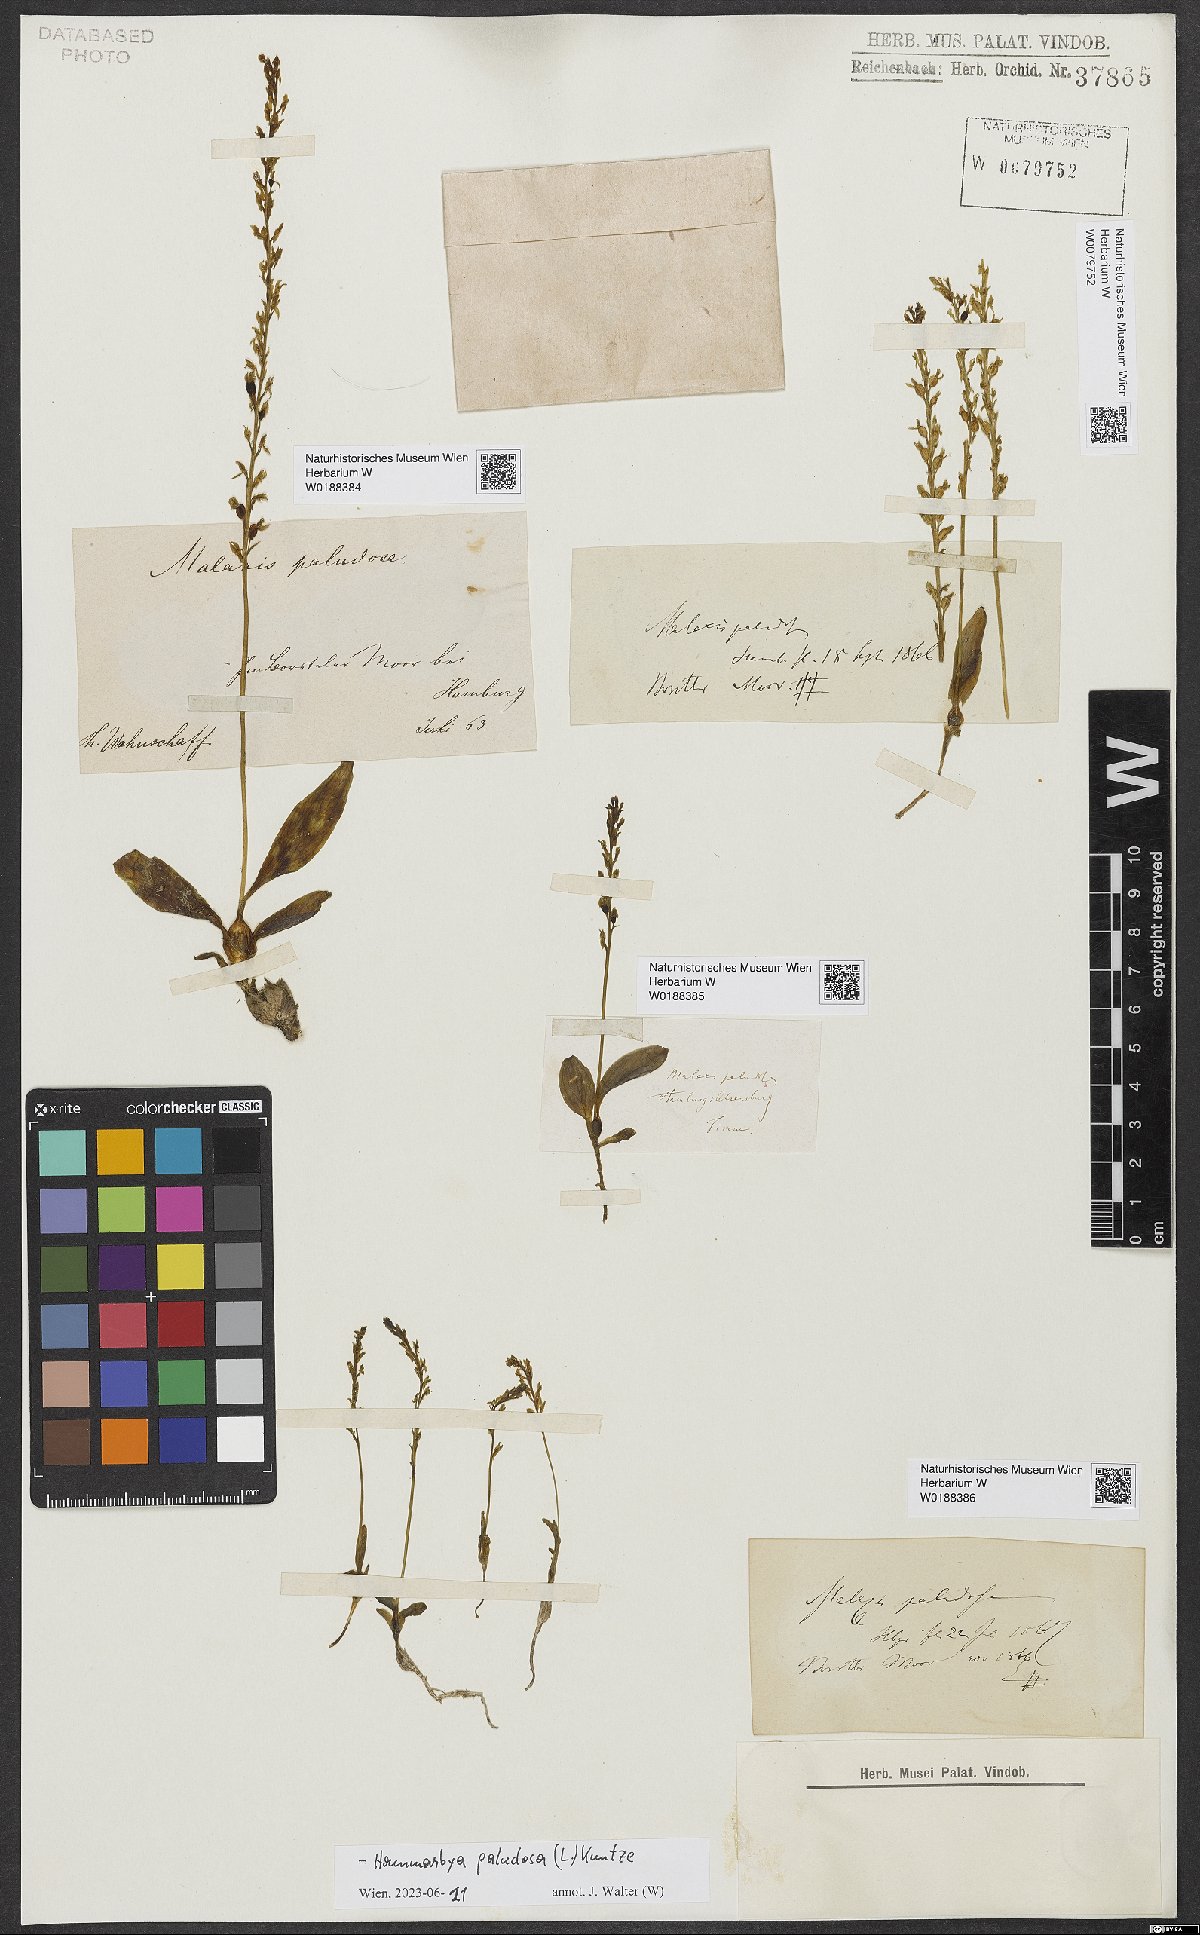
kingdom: Plantae
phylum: Tracheophyta
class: Liliopsida
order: Asparagales
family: Orchidaceae
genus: Hammarbya
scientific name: Hammarbya paludosa
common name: Bog orchid
